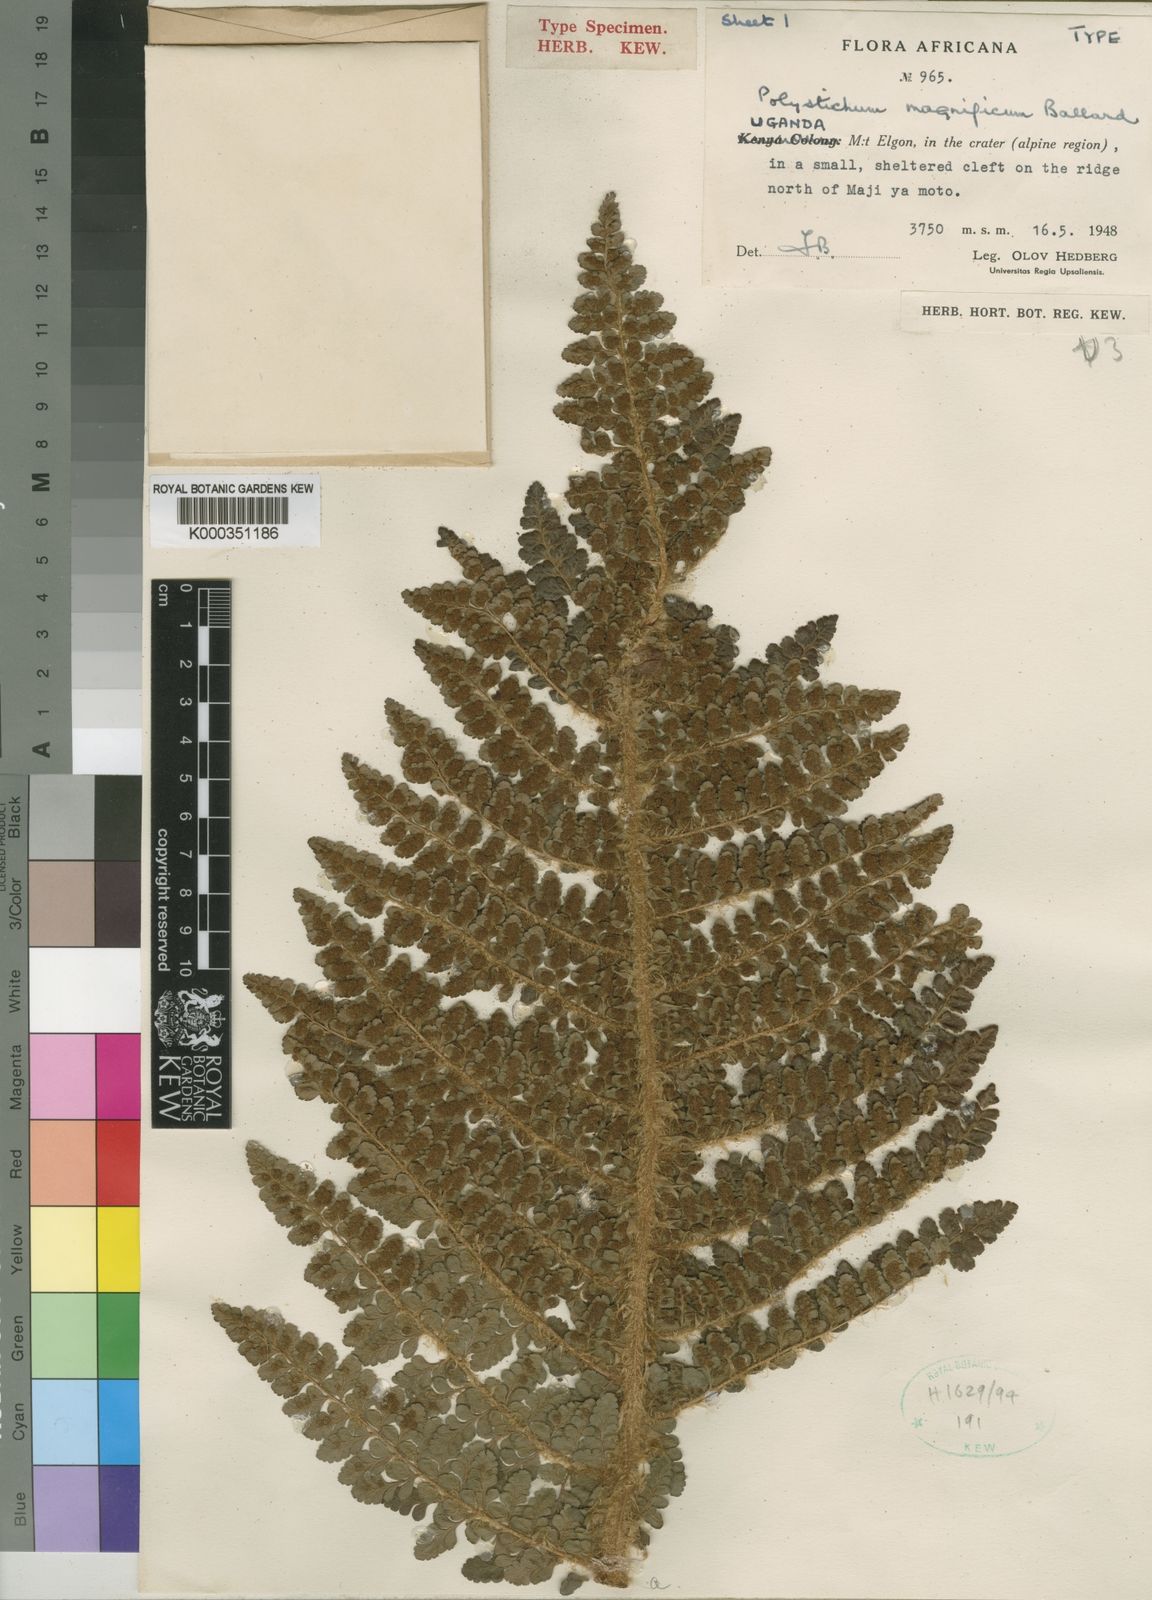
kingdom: Plantae
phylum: Tracheophyta
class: Polypodiopsida
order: Polypodiales
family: Dryopteridaceae
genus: Polystichum
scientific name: Polystichum magnificum
